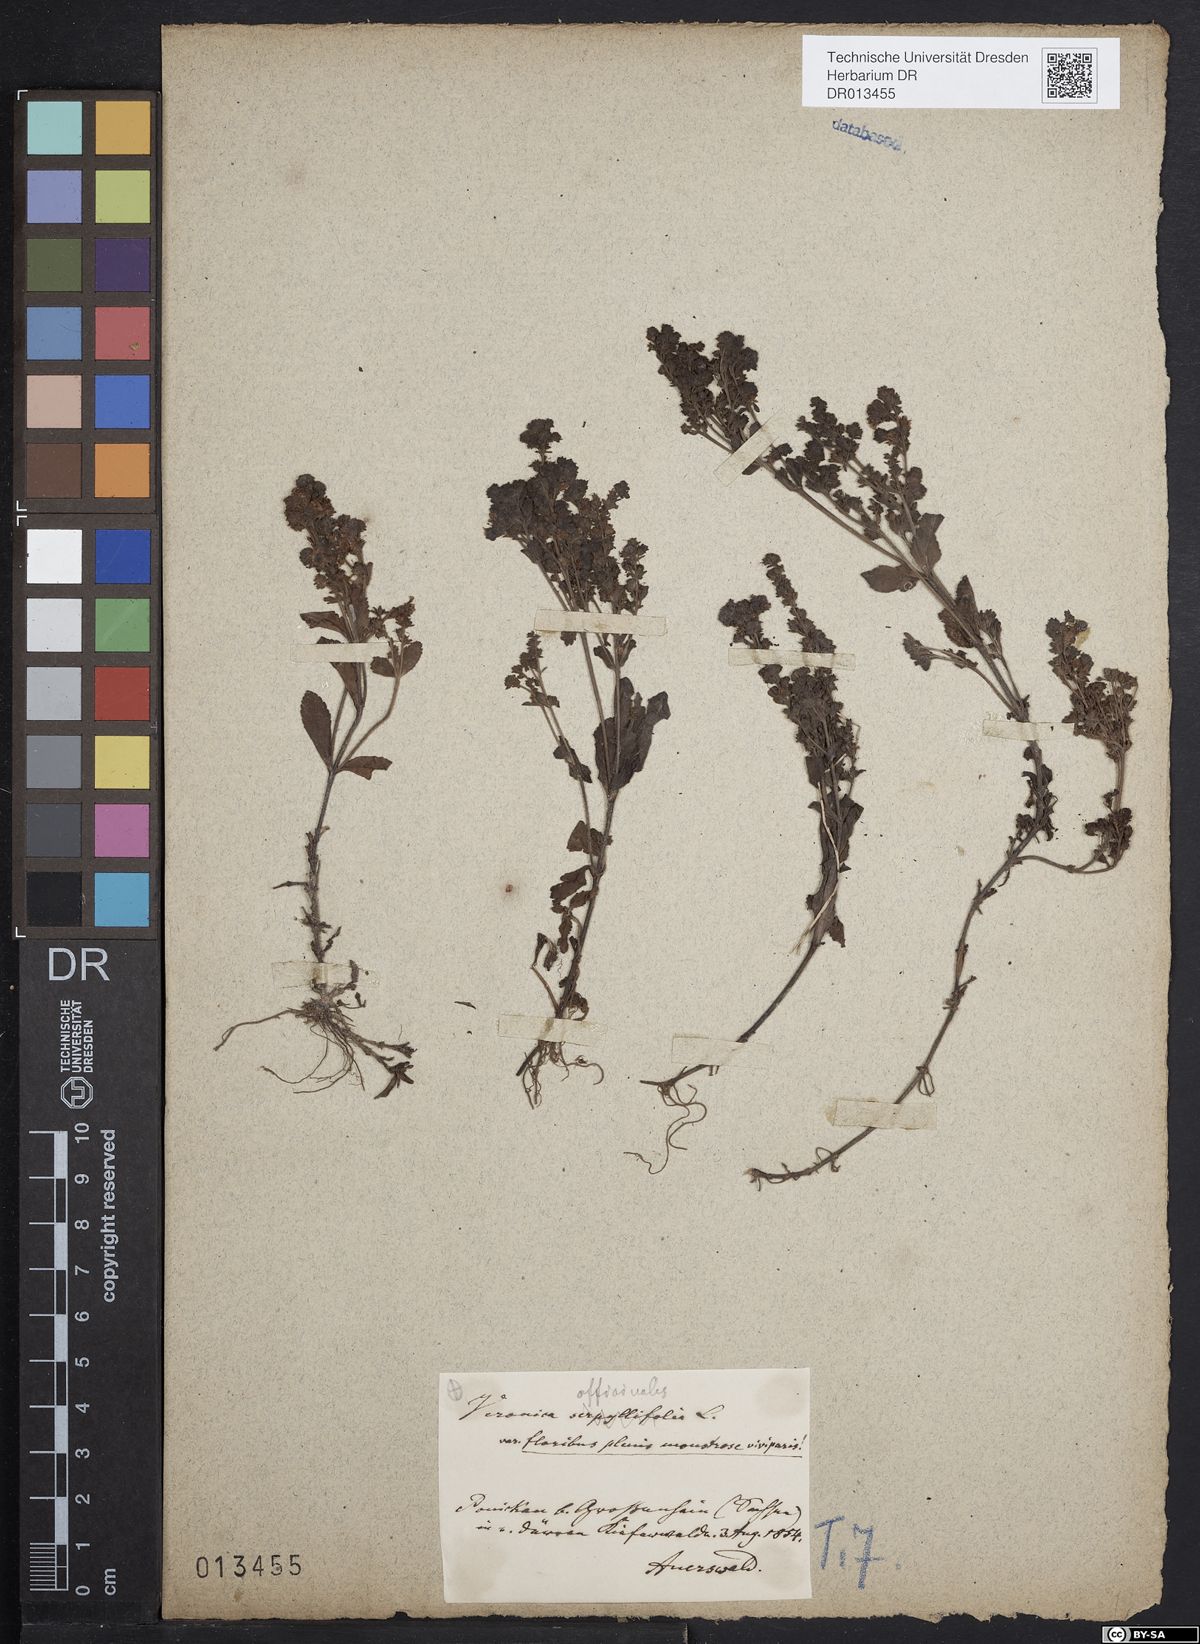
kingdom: Plantae
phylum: Tracheophyta
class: Magnoliopsida
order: Lamiales
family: Plantaginaceae
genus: Veronica
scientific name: Veronica officinalis
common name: Common speedwell
